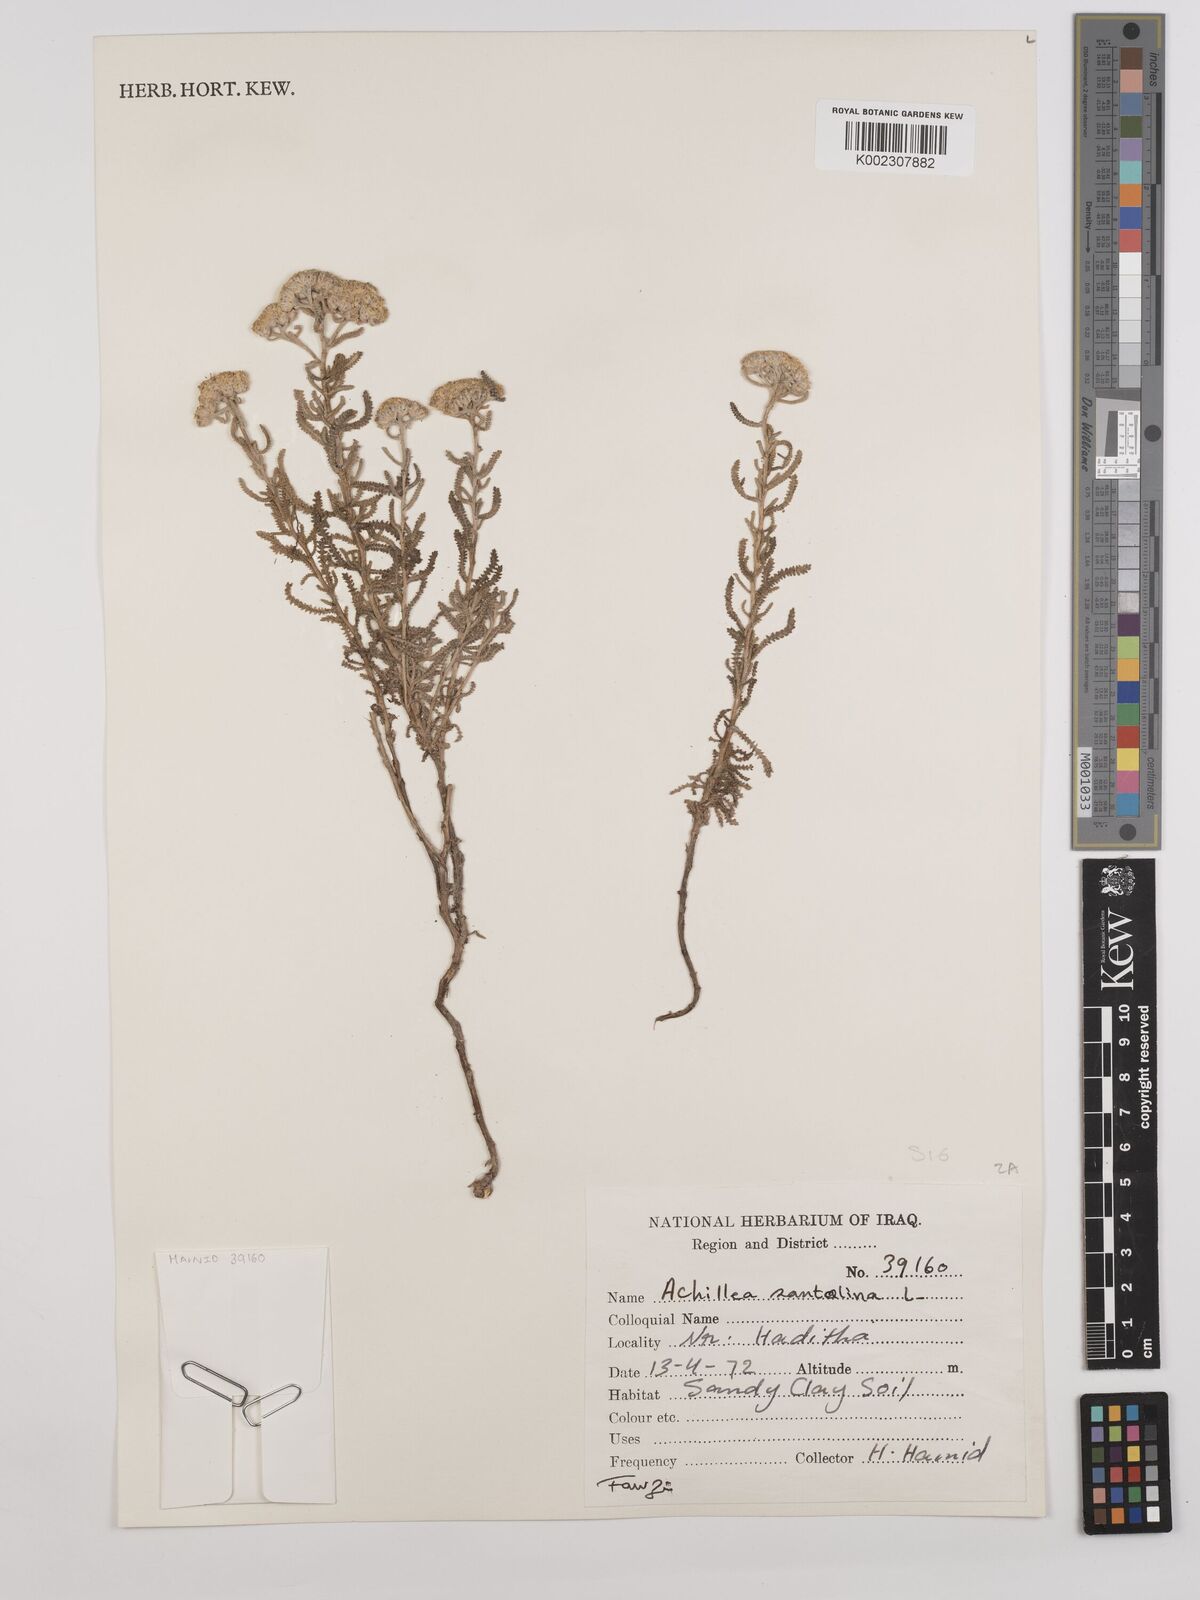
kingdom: Plantae
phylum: Tracheophyta
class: Magnoliopsida
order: Asterales
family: Asteraceae
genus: Achillea
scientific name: Achillea wilhelmsii
